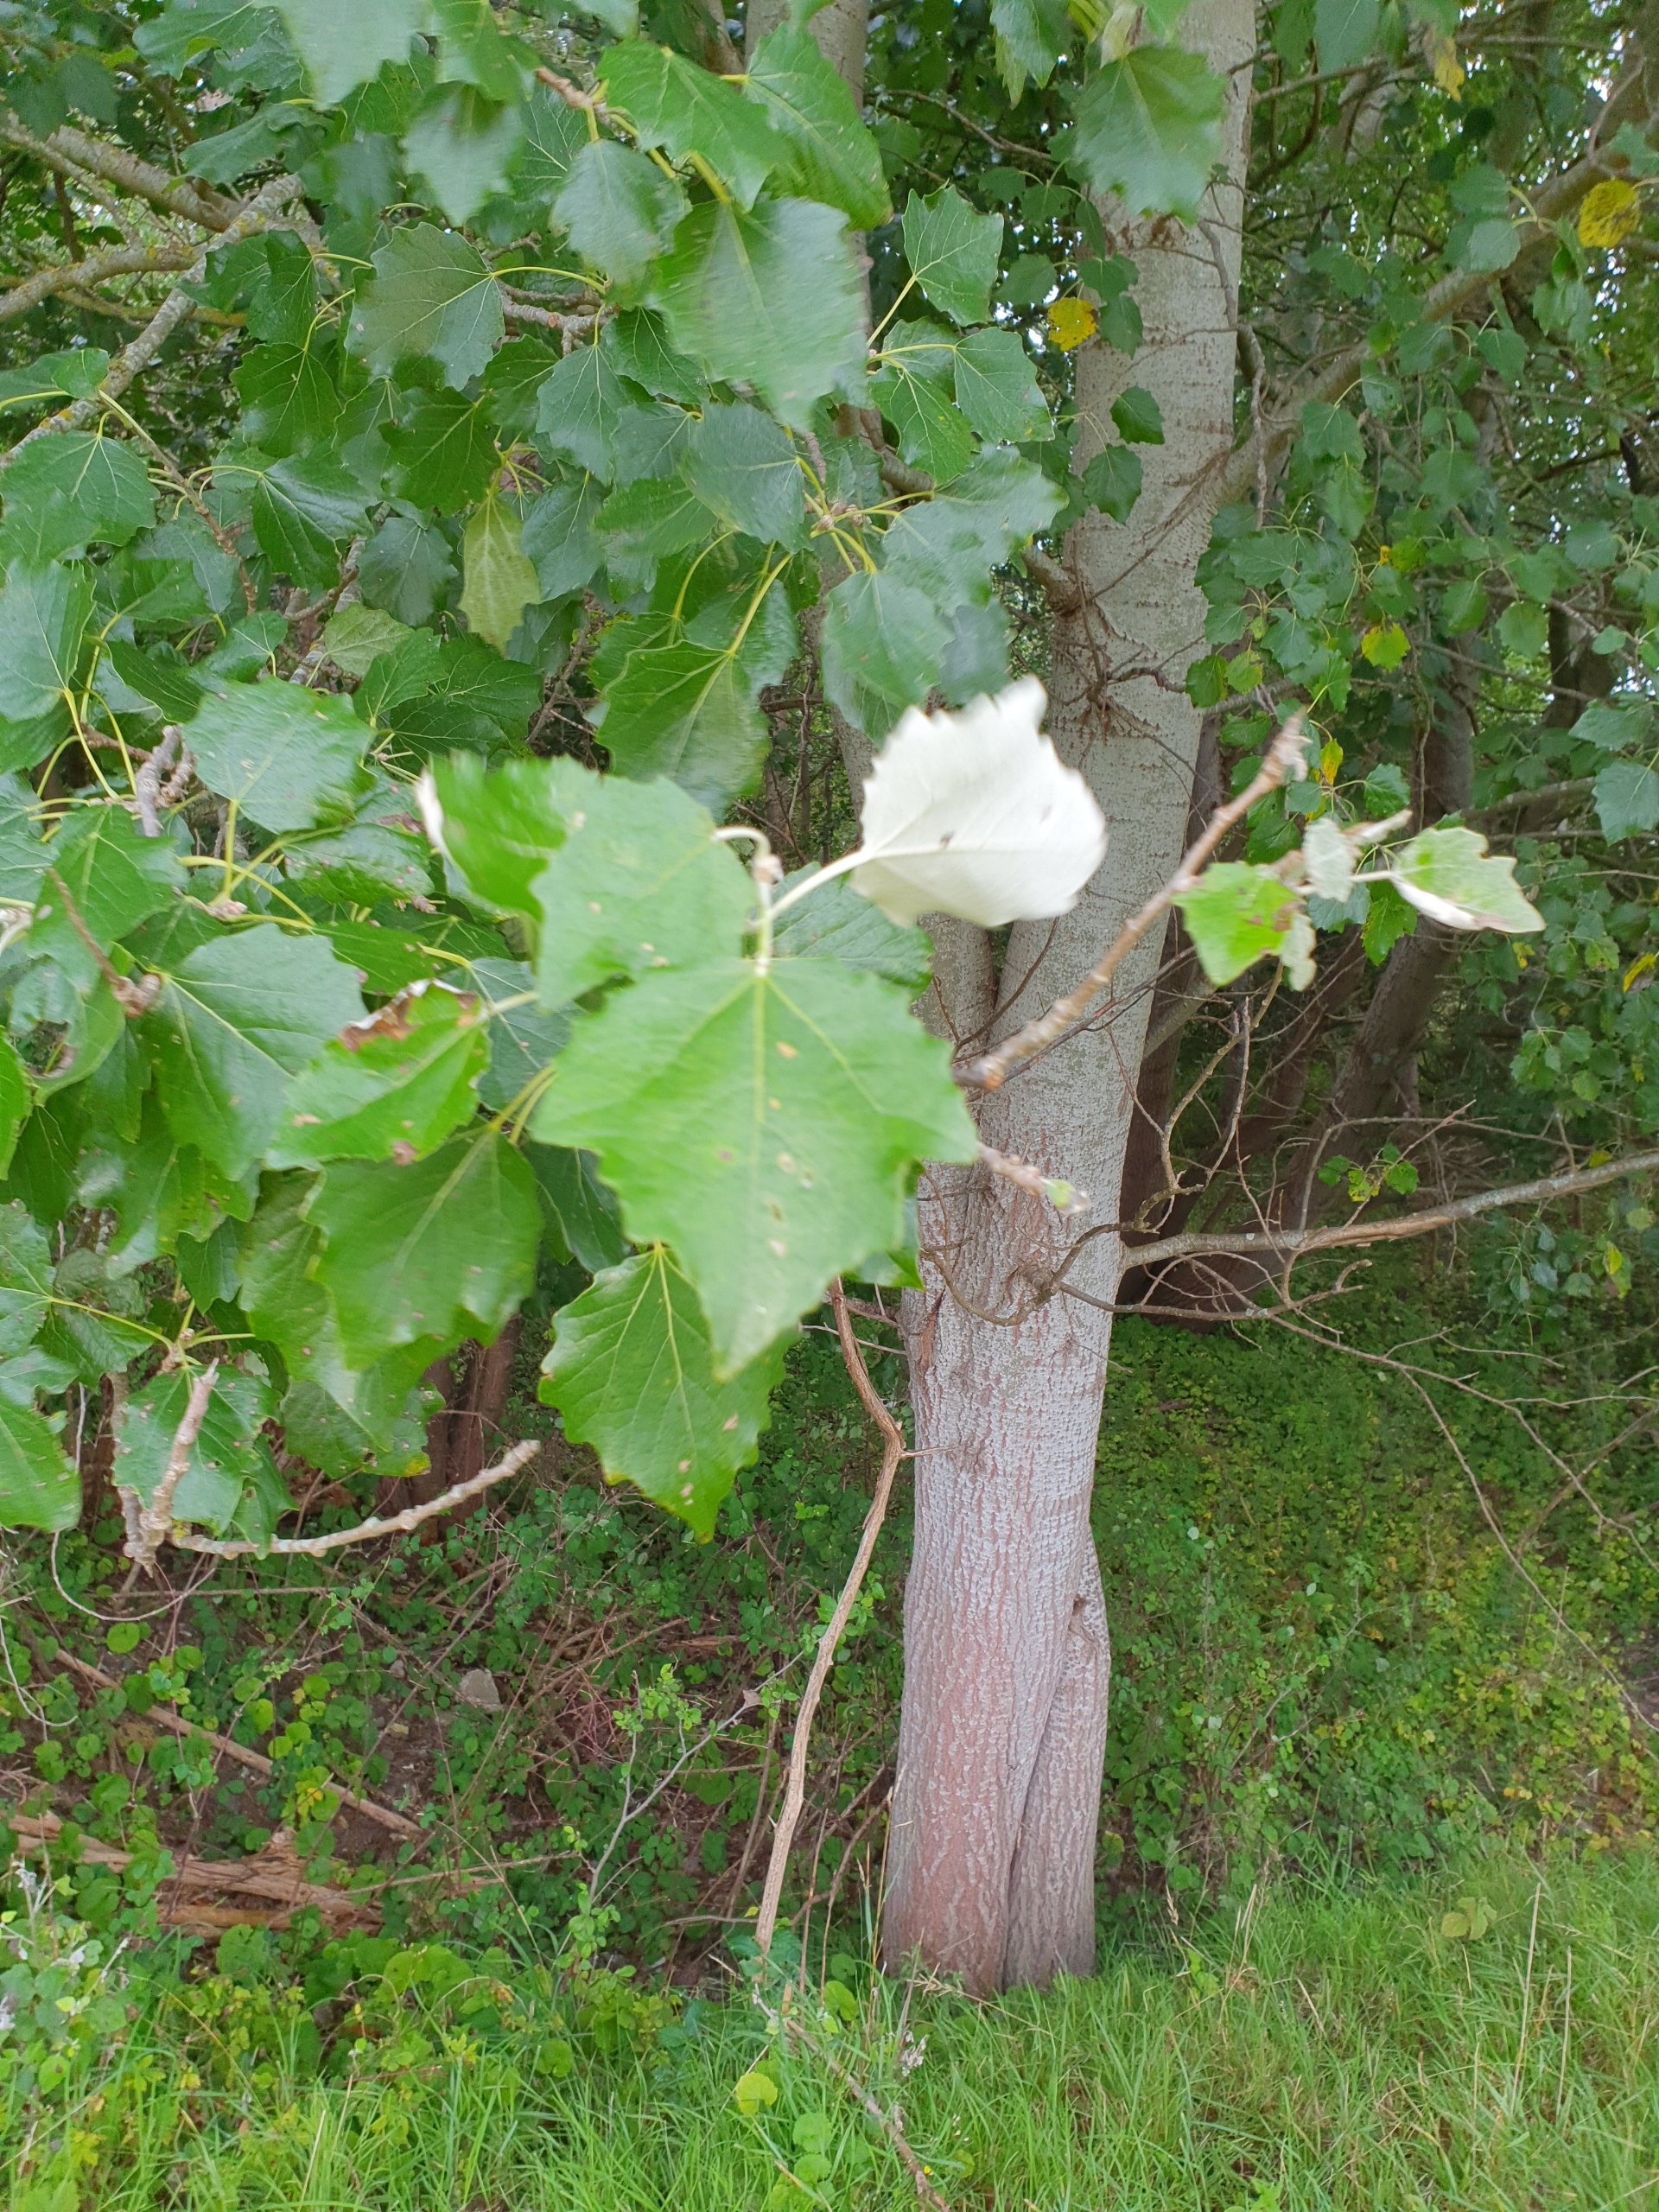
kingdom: Plantae
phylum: Tracheophyta
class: Magnoliopsida
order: Malpighiales
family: Salicaceae
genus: Populus
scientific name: Populus alba
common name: Sølv-poppel
